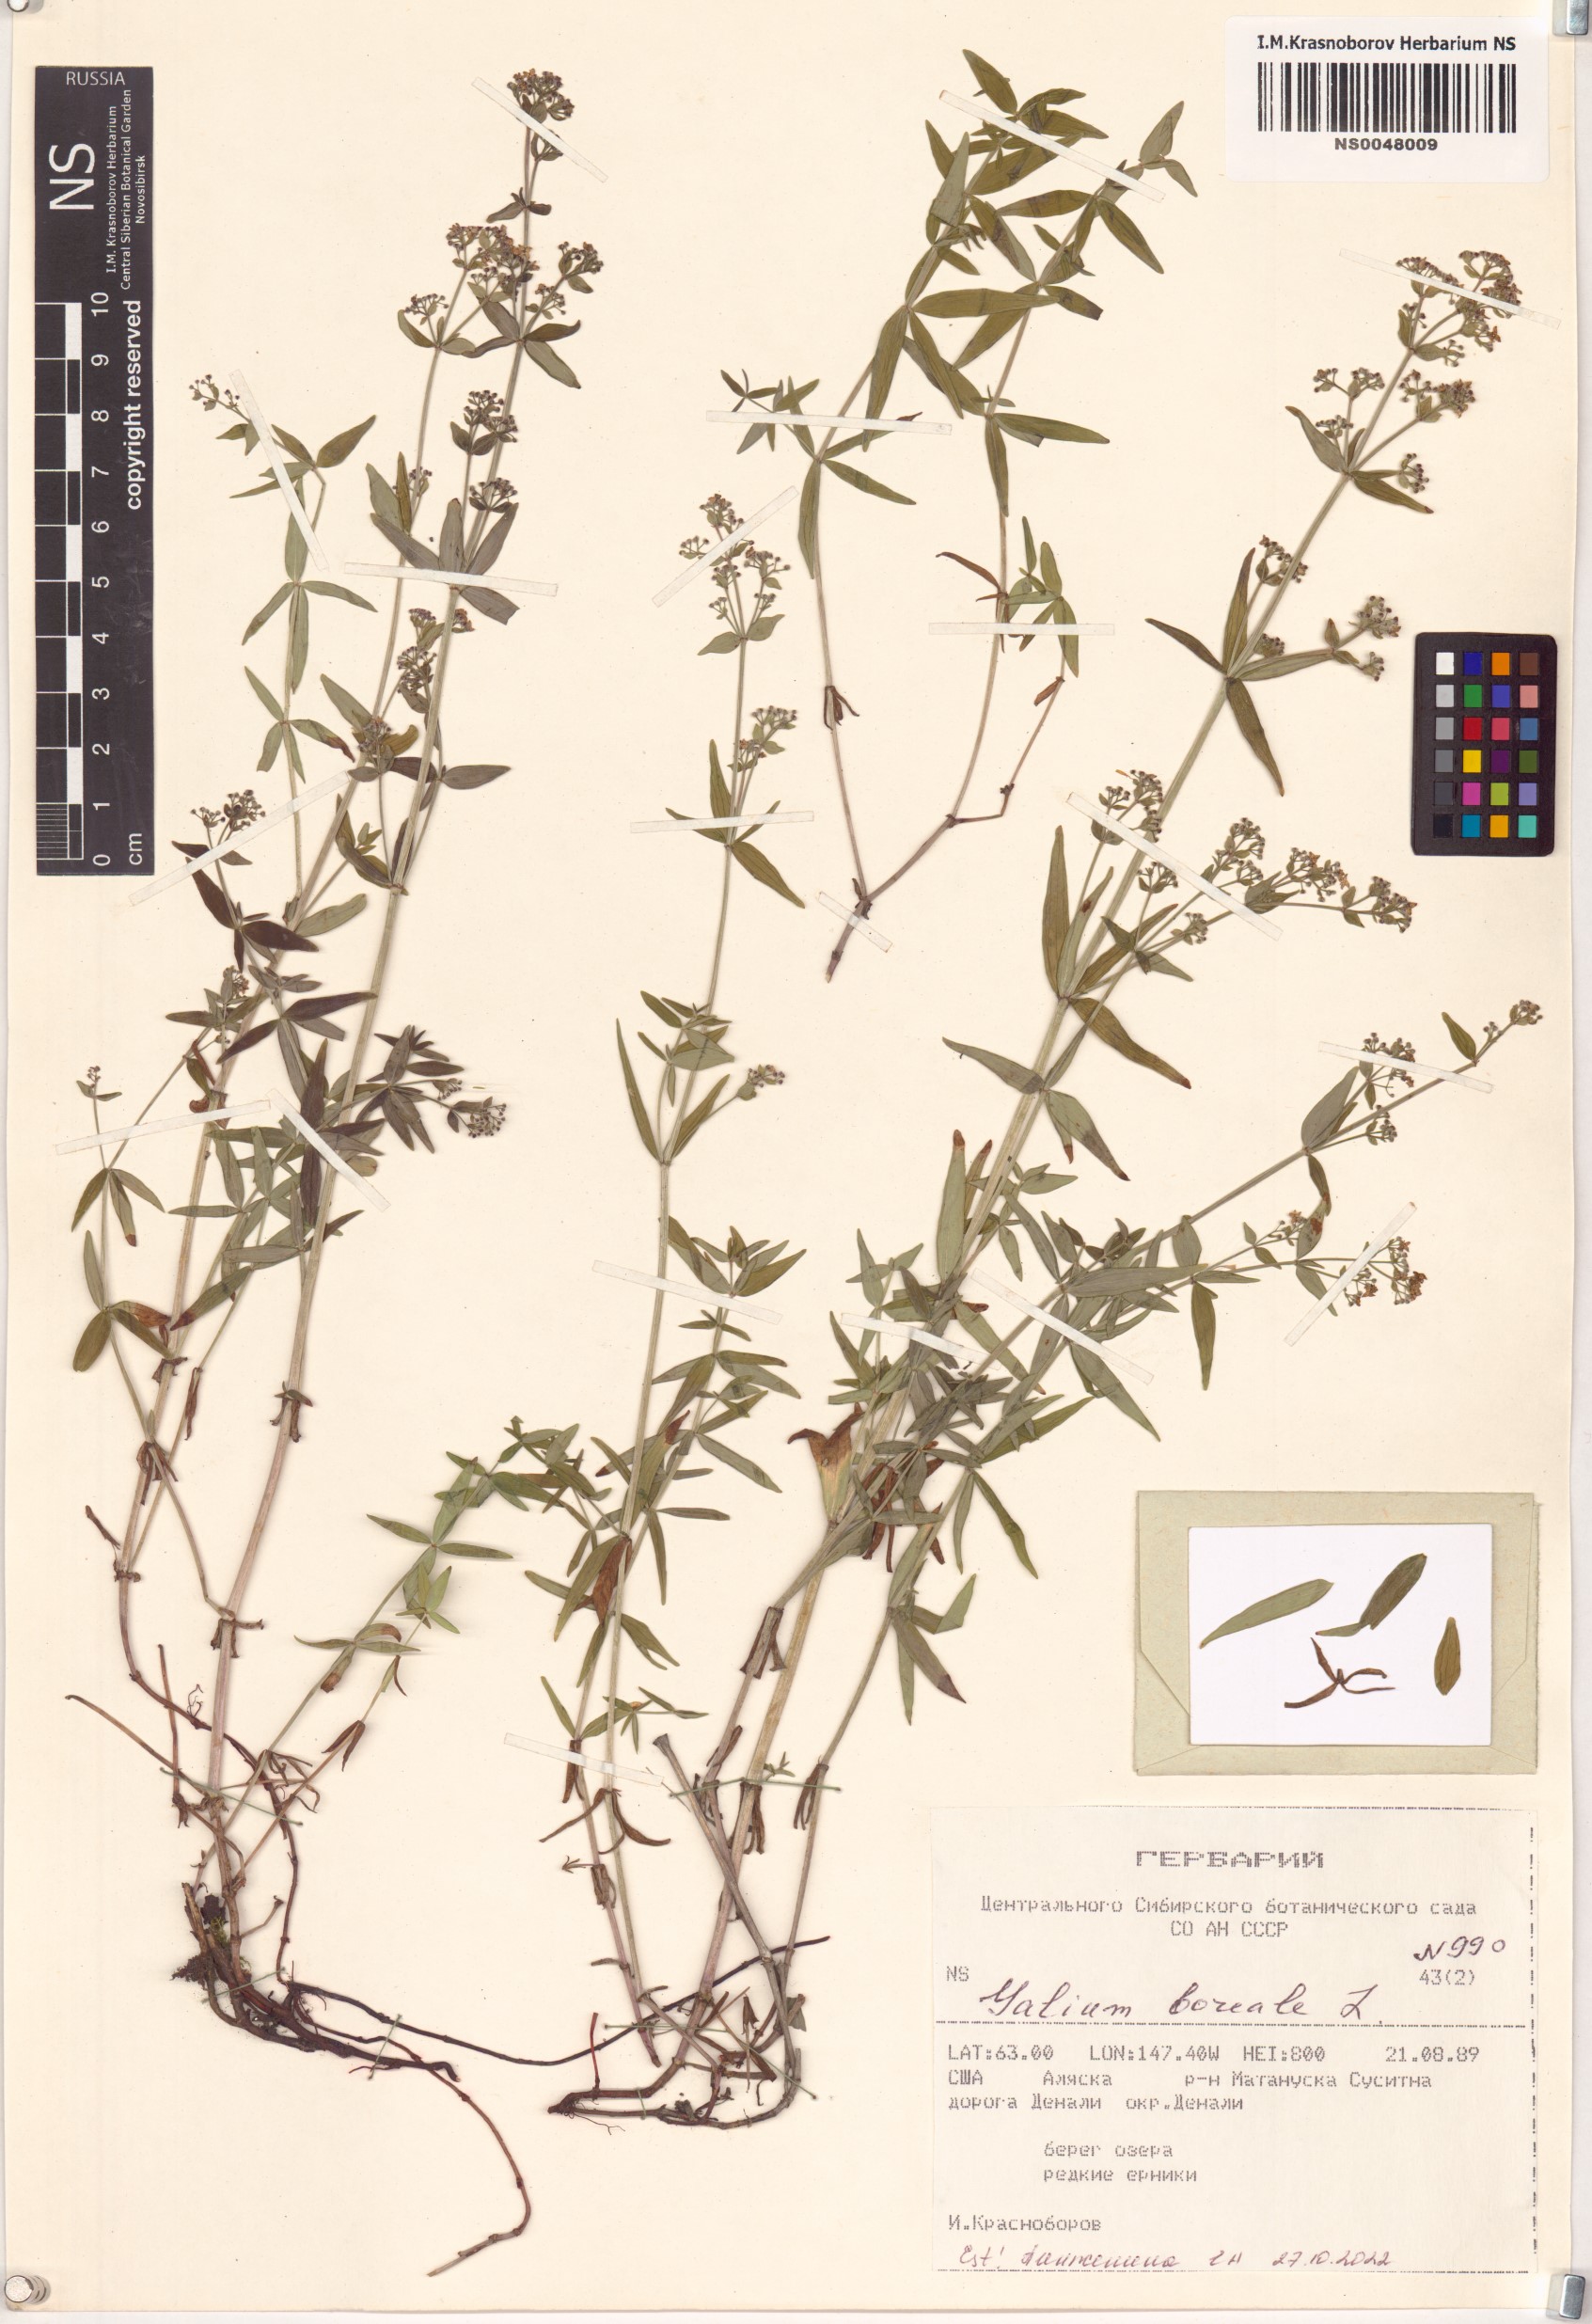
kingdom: Plantae
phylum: Tracheophyta
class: Magnoliopsida
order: Gentianales
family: Rubiaceae
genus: Galium
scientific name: Galium boreale
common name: Northern bedstraw
